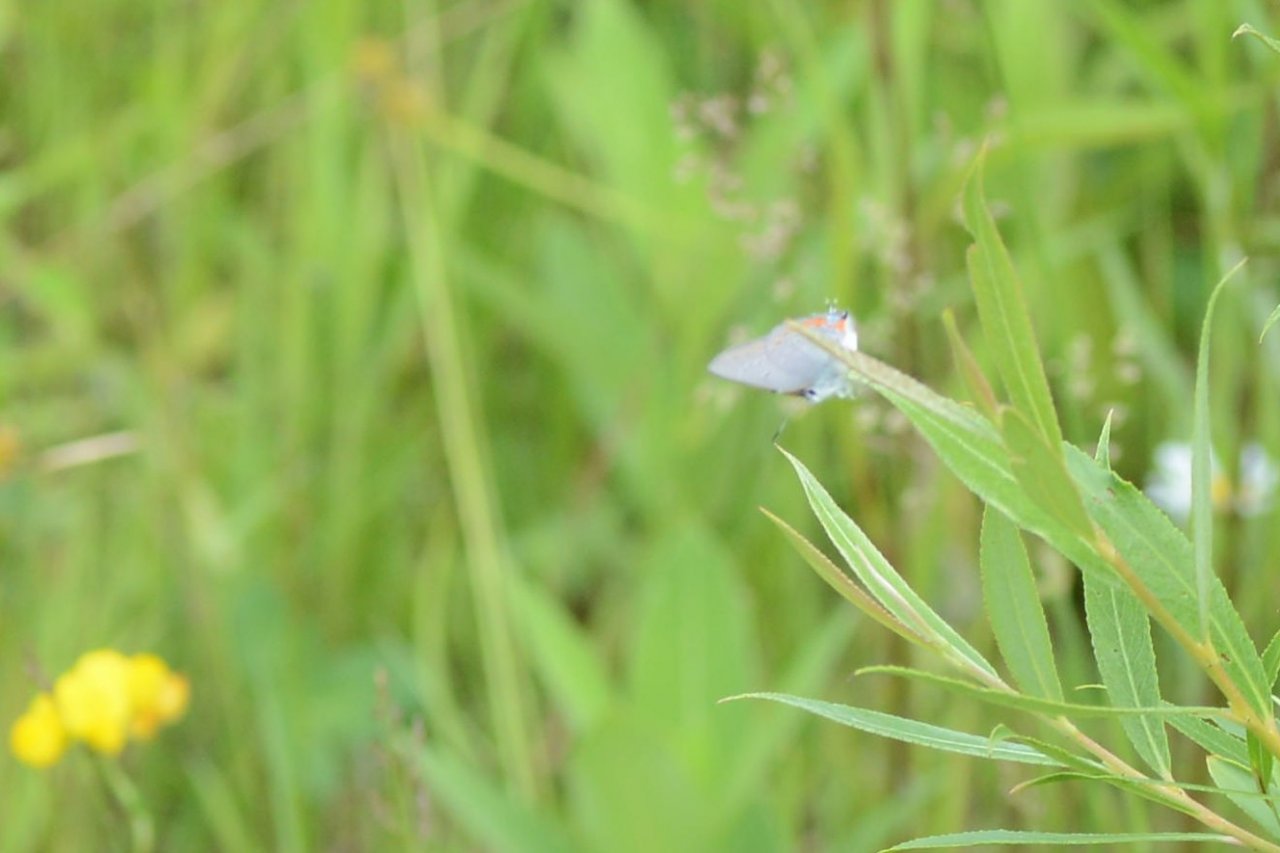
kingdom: Animalia
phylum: Arthropoda
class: Insecta
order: Lepidoptera
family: Lycaenidae
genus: Strymon
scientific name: Strymon acadica
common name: Acadian Hairstreak
